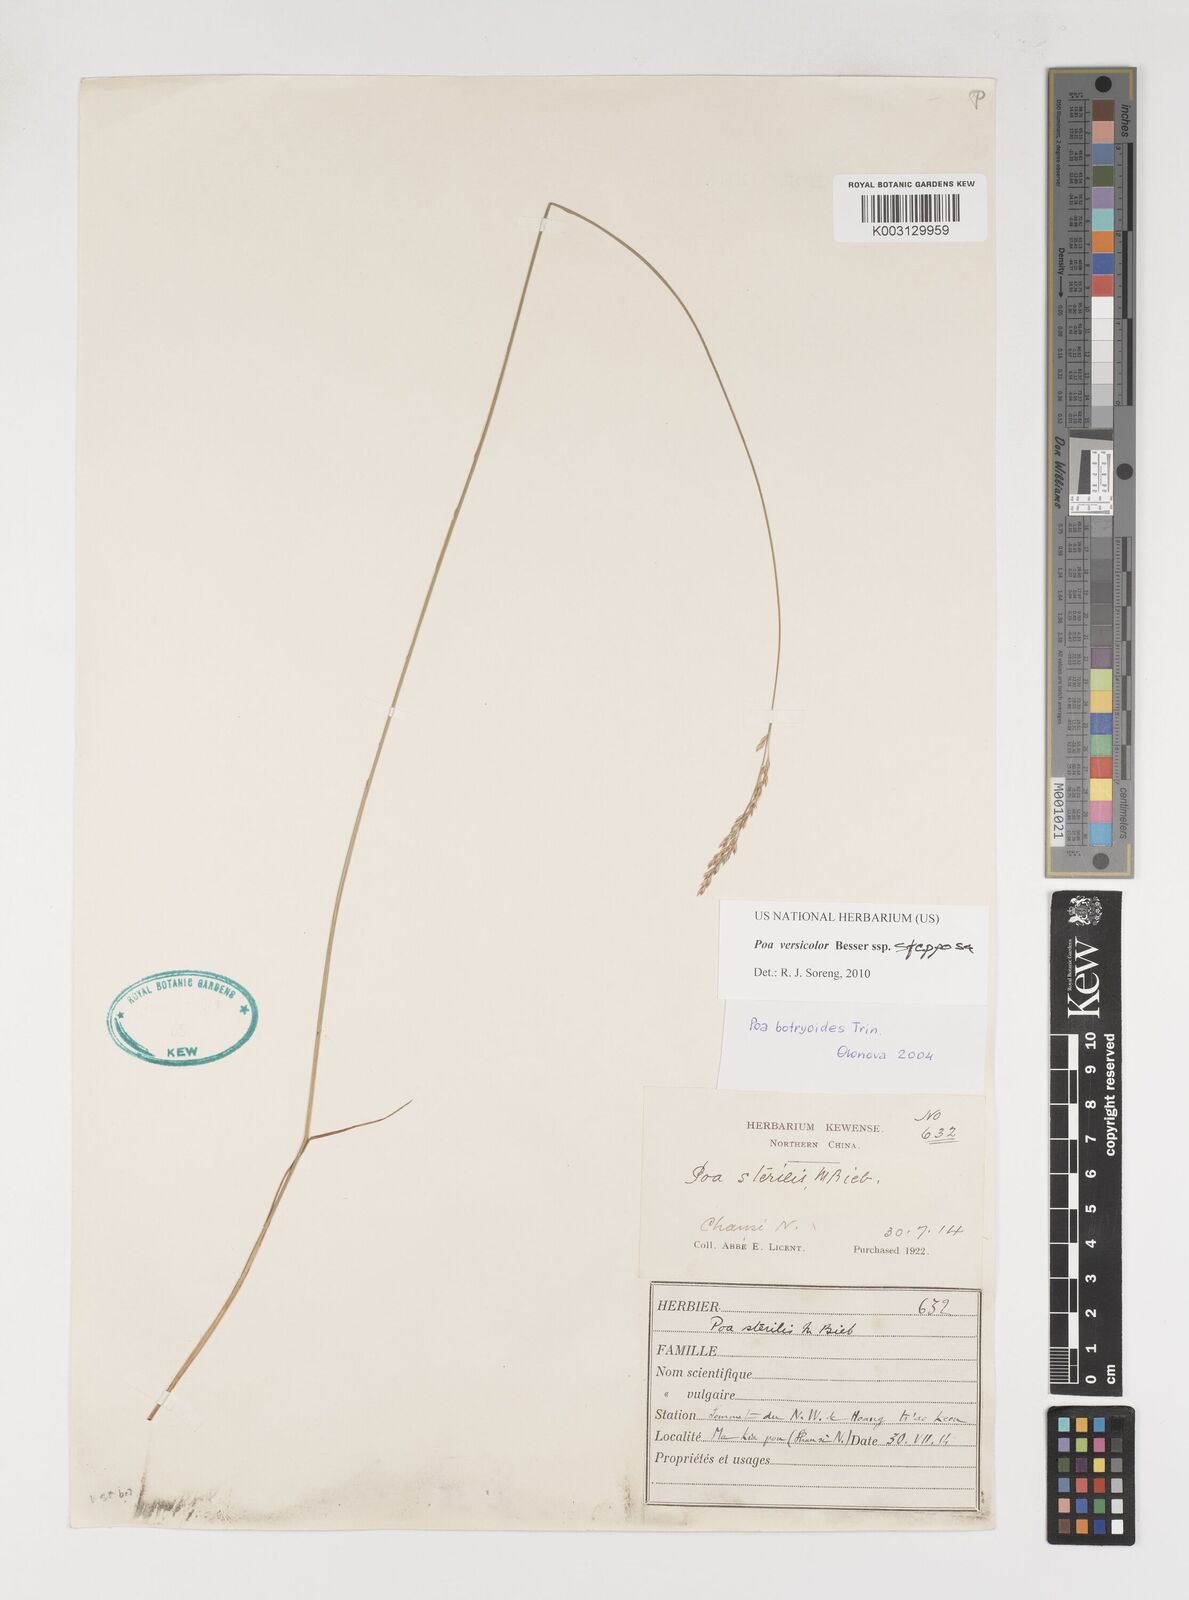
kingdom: Plantae
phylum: Tracheophyta
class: Liliopsida
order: Poales
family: Poaceae
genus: Poa
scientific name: Poa versicolor
